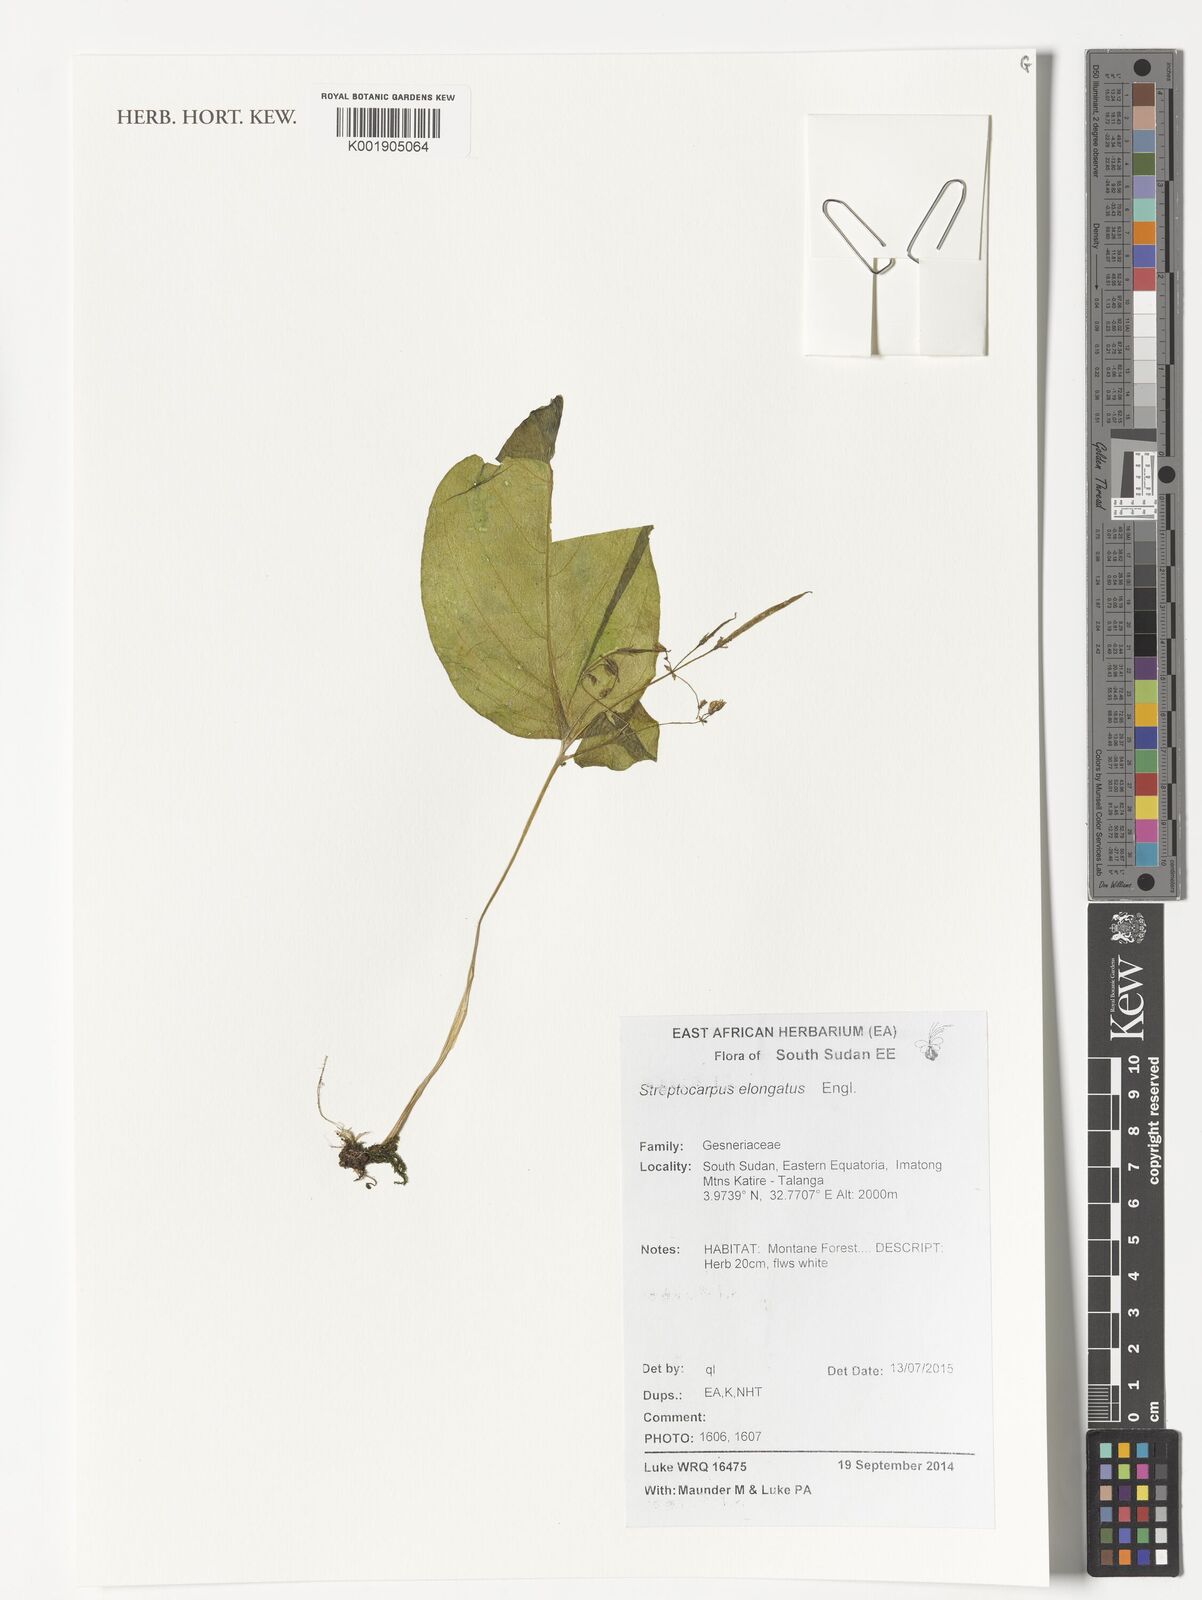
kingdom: Plantae
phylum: Tracheophyta
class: Magnoliopsida
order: Lamiales
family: Gesneriaceae
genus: Streptocarpus
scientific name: Streptocarpus elongatus
